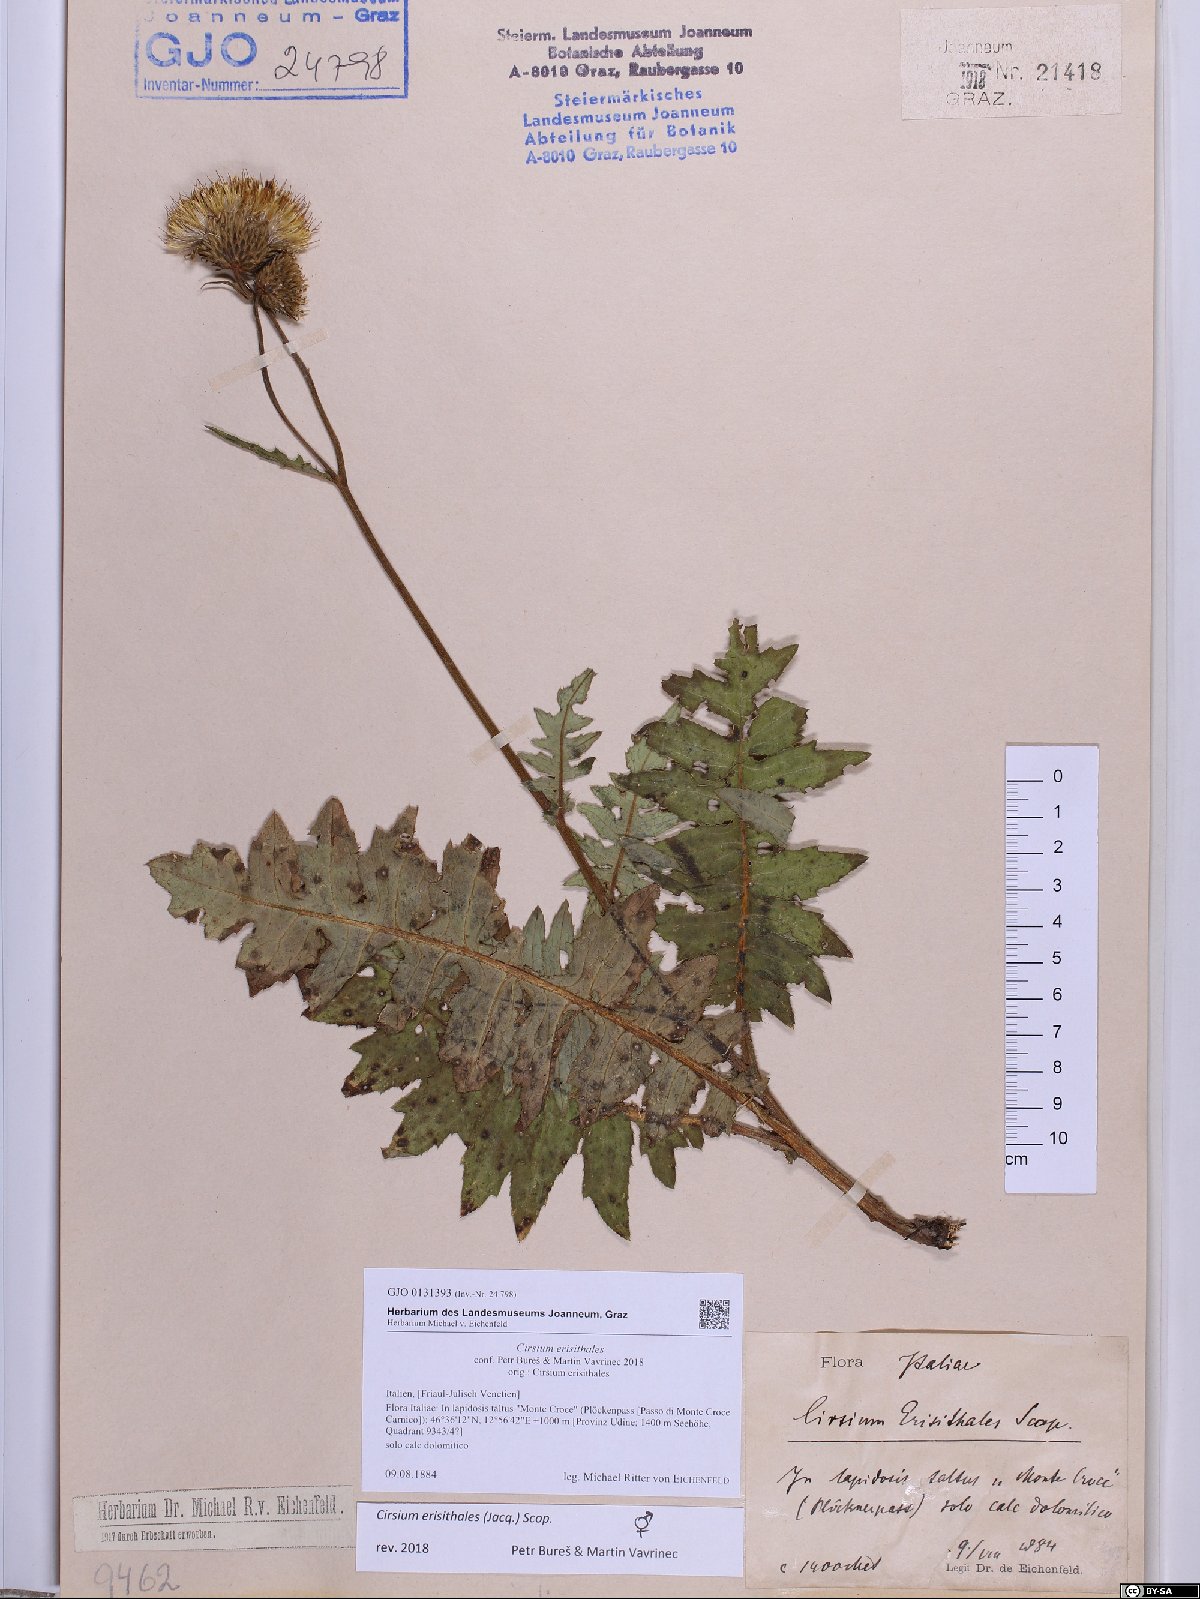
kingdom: Plantae
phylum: Tracheophyta
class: Magnoliopsida
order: Asterales
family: Asteraceae
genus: Cirsium
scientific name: Cirsium erisithales
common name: Yellow thistle
